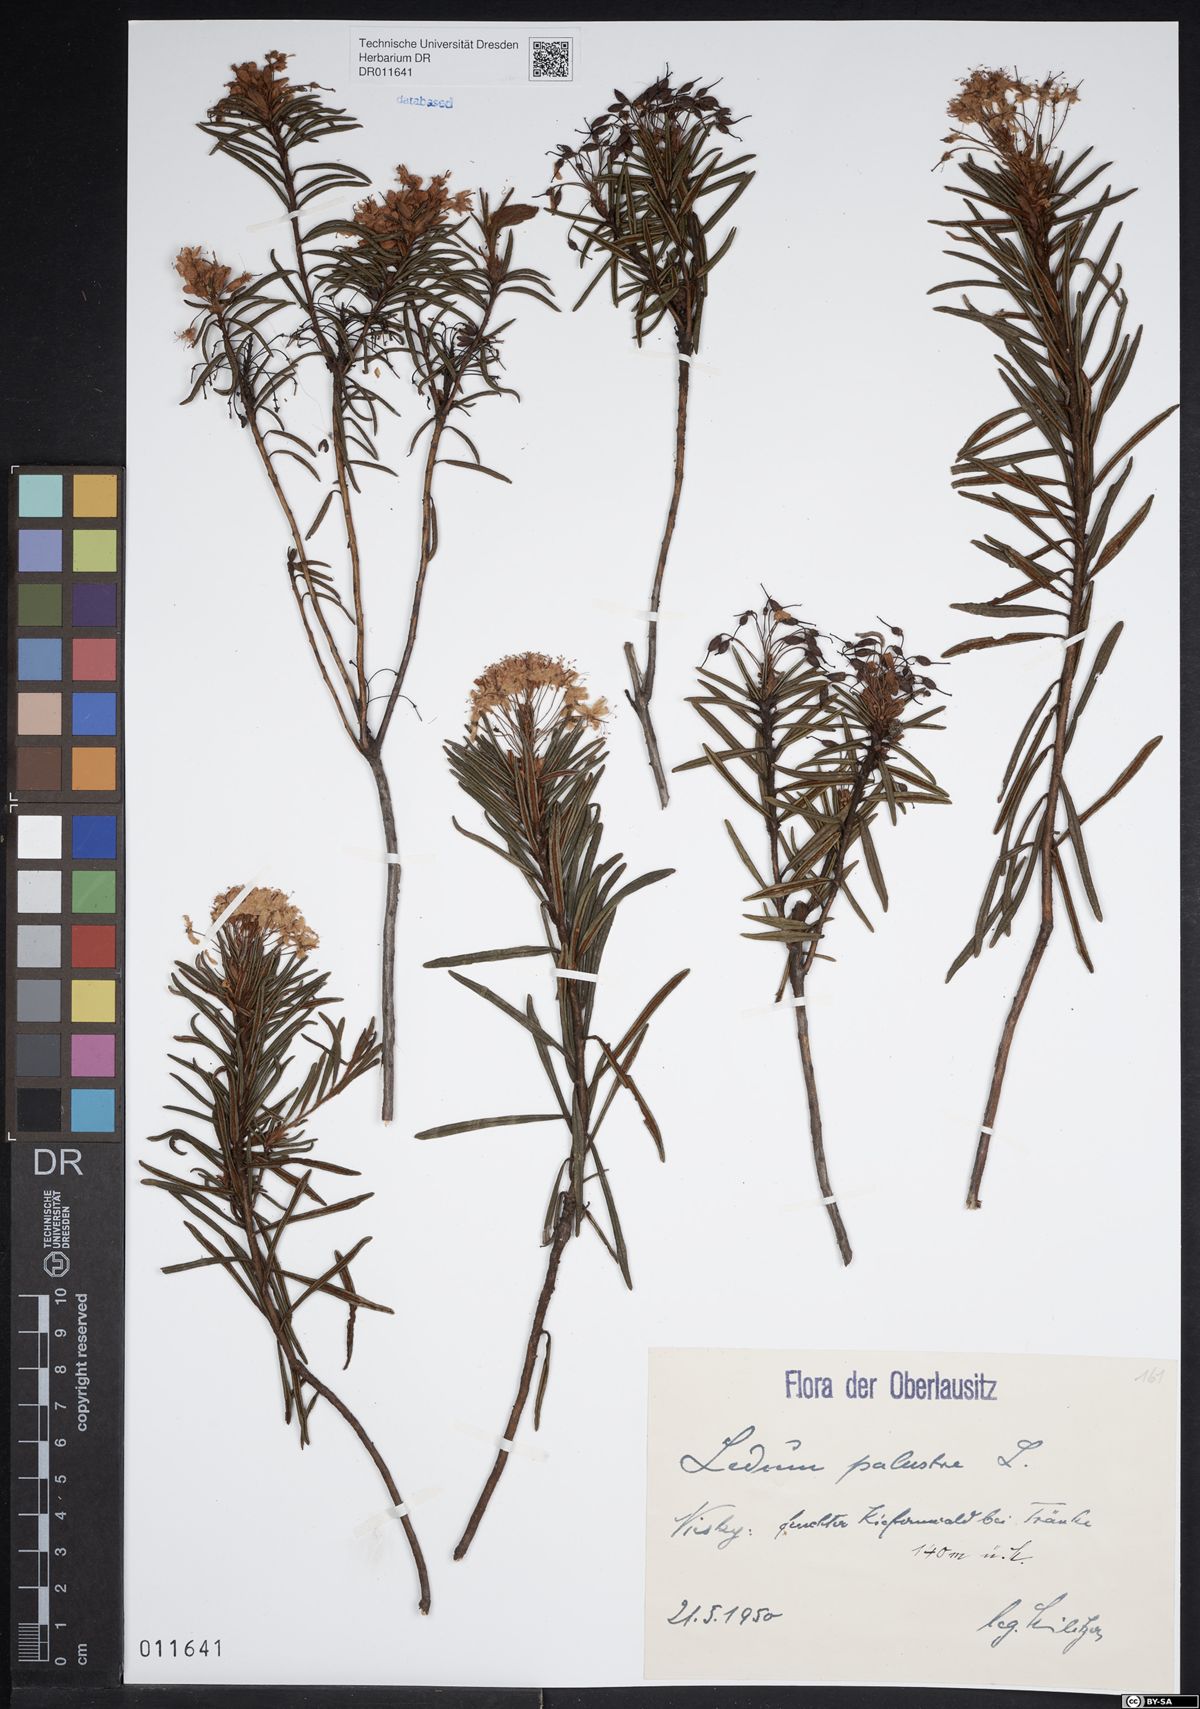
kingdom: Plantae
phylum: Tracheophyta
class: Magnoliopsida
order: Ericales
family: Ericaceae
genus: Rhododendron
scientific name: Rhododendron tomentosum
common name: Marsh labrador tea
